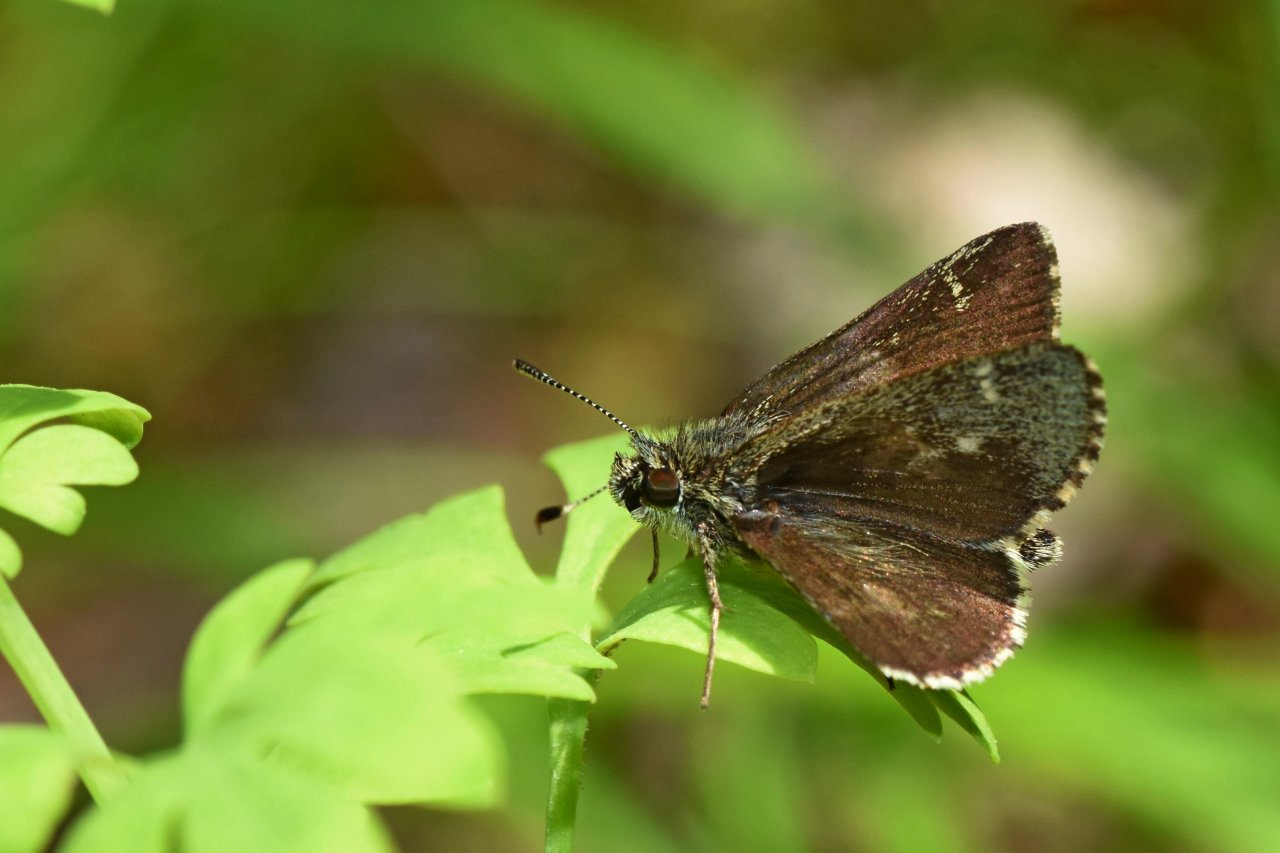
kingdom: Animalia
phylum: Arthropoda
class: Insecta
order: Lepidoptera
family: Hesperiidae
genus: Mastor
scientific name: Mastor hegon
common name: Pepper and Salt Skipper
